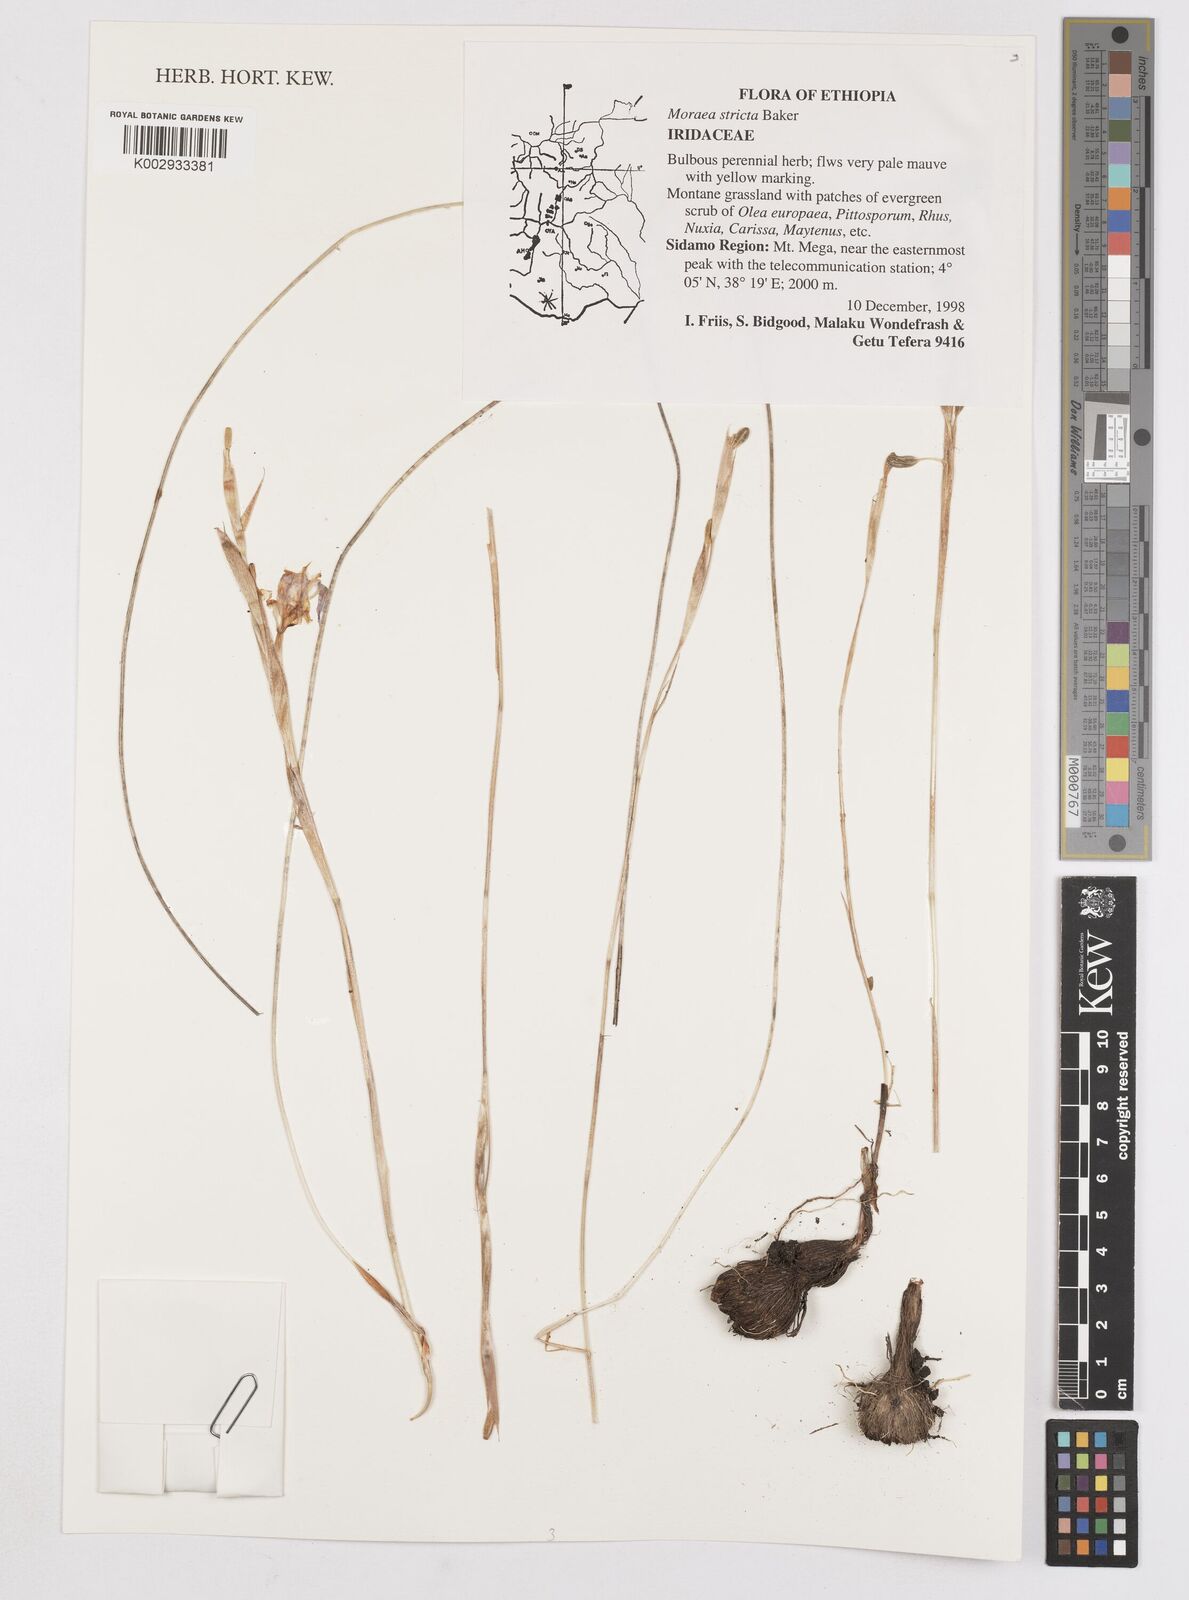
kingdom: Plantae
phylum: Tracheophyta
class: Liliopsida
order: Asparagales
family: Iridaceae
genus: Moraea
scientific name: Moraea thomsonii
